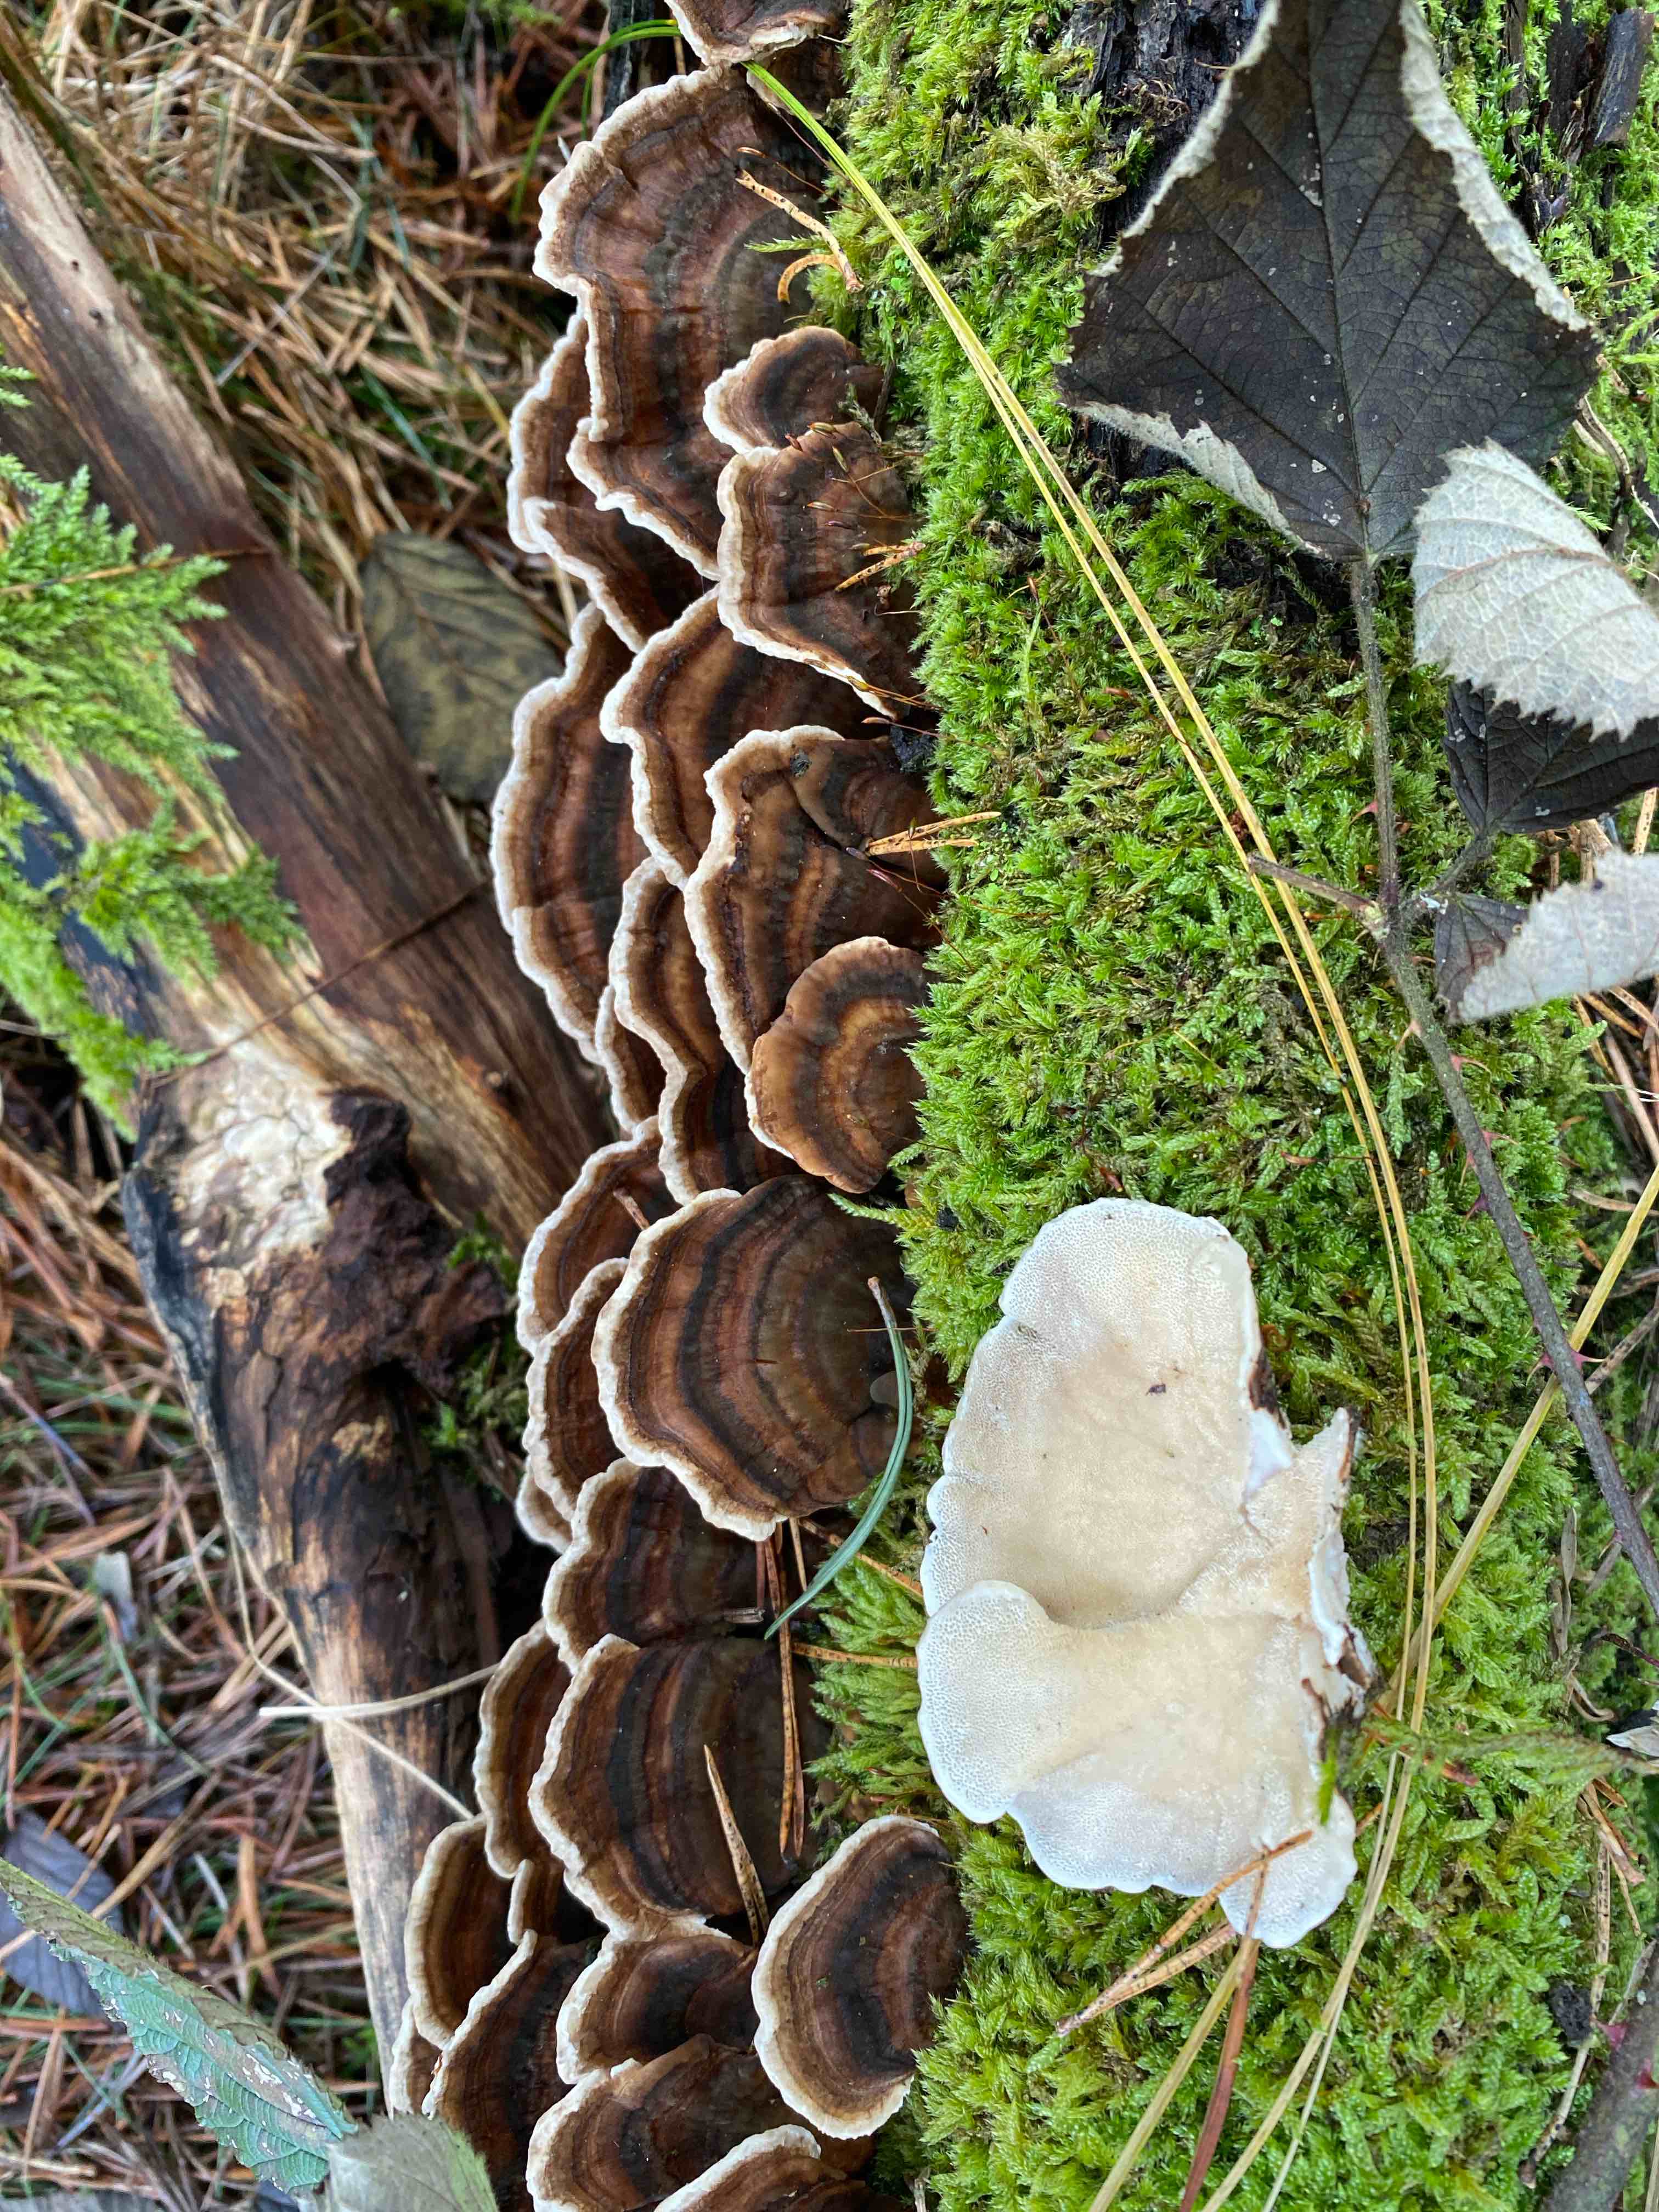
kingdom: Fungi
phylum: Basidiomycota
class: Agaricomycetes
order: Polyporales
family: Polyporaceae
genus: Trametes
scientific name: Trametes versicolor
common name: broget læderporesvamp
